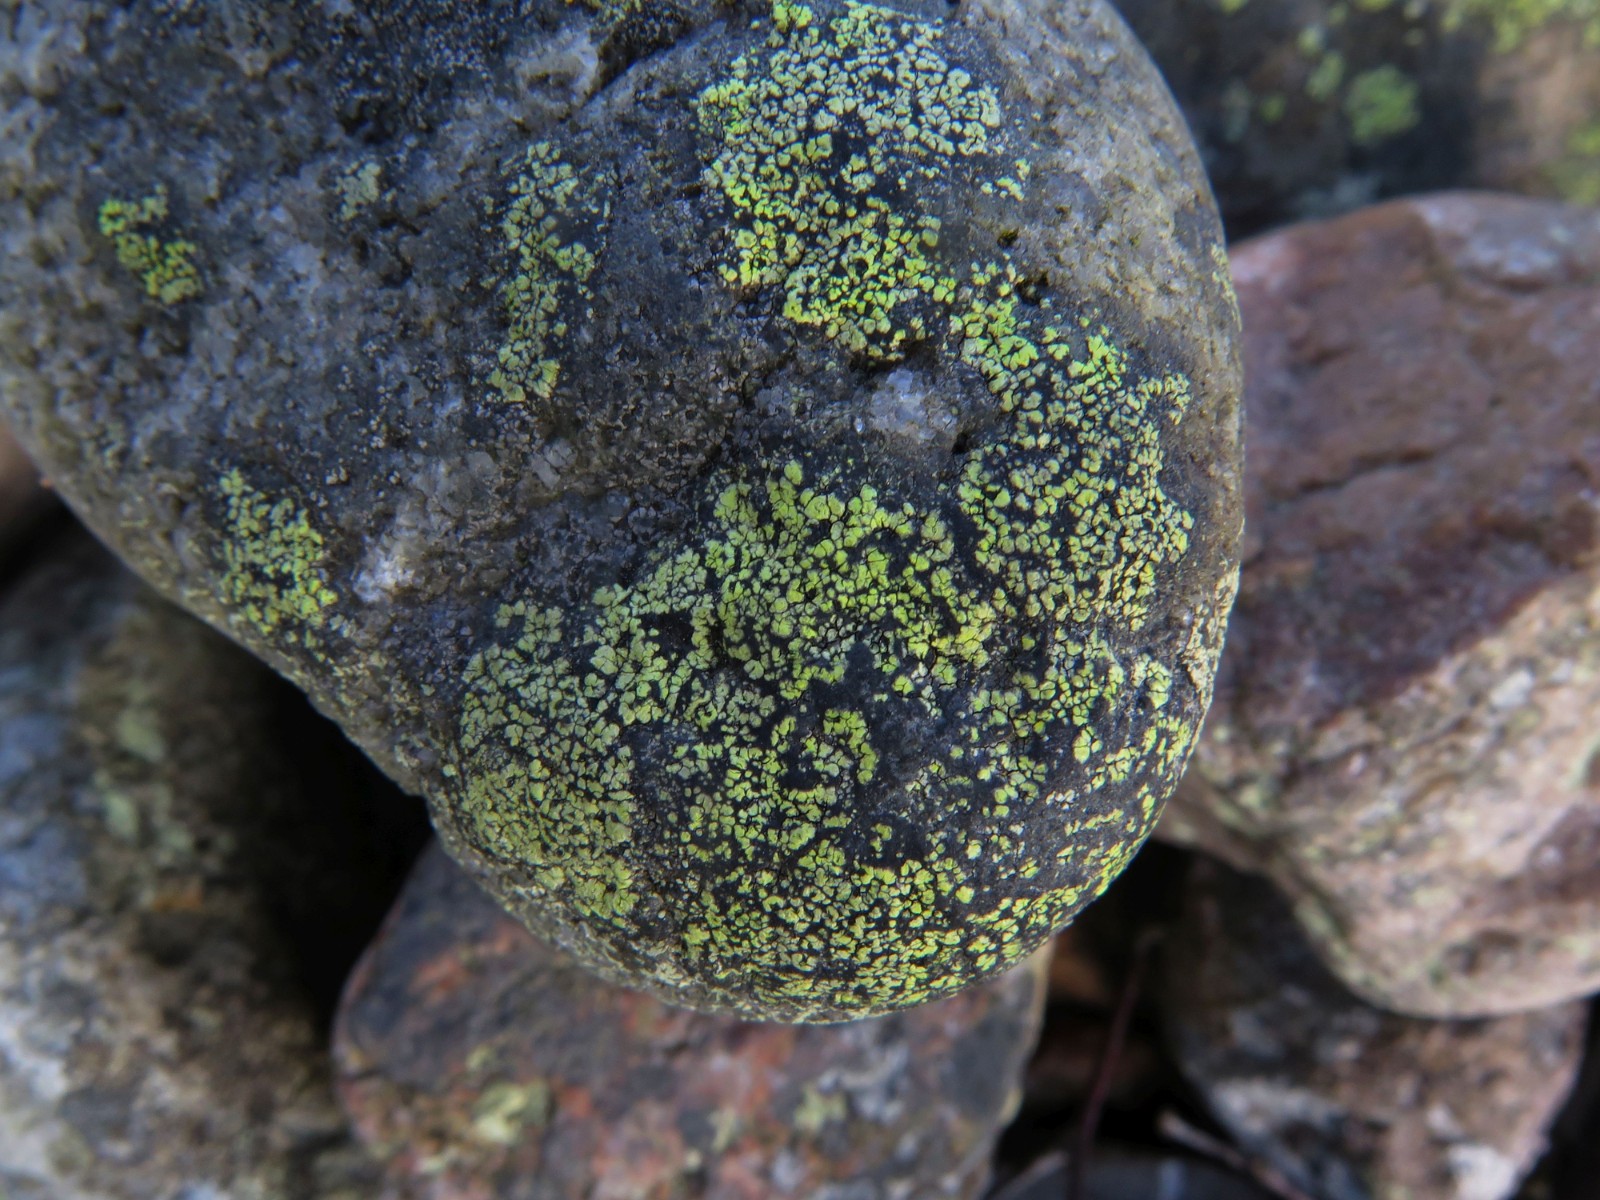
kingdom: Fungi
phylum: Ascomycota
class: Lecanoromycetes
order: Rhizocarpales
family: Rhizocarpaceae
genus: Rhizocarpon
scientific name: Rhizocarpon geographicum
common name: gulgrøn landkortlav
